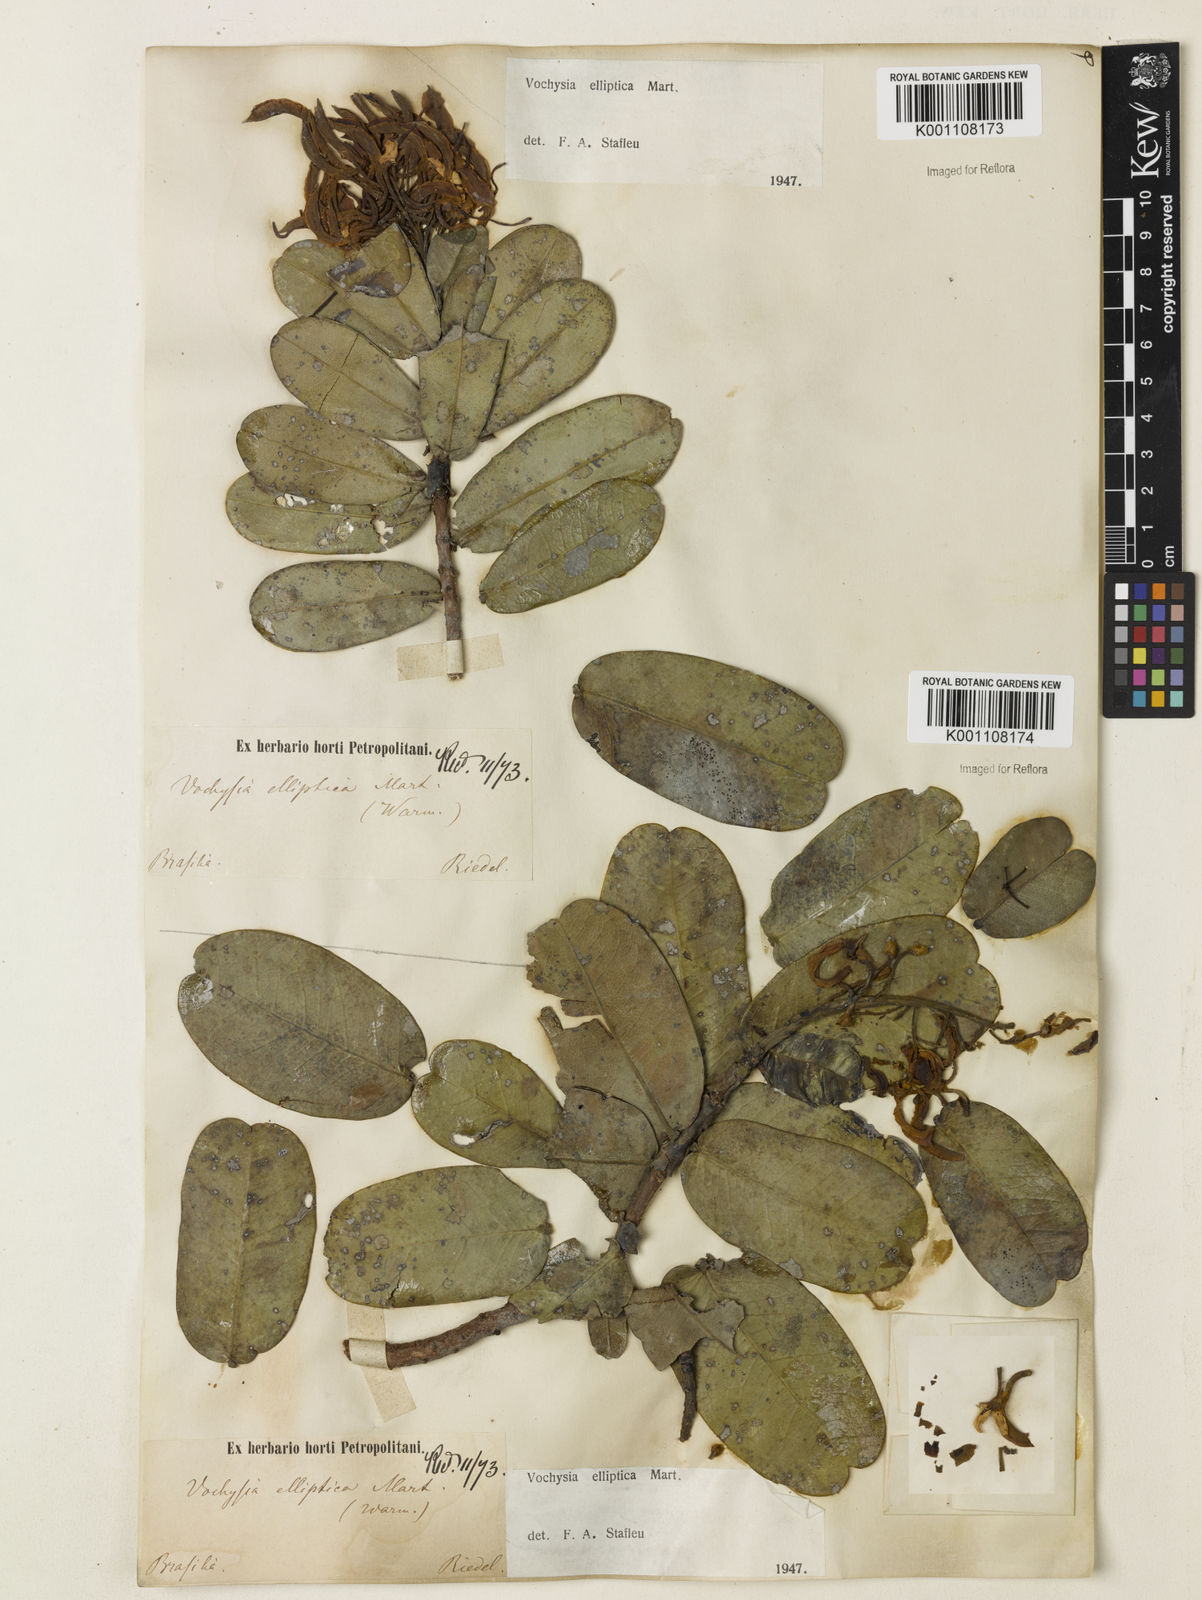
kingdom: Plantae
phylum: Tracheophyta
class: Magnoliopsida
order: Myrtales
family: Vochysiaceae
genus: Vochysia
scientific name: Vochysia elliptica
